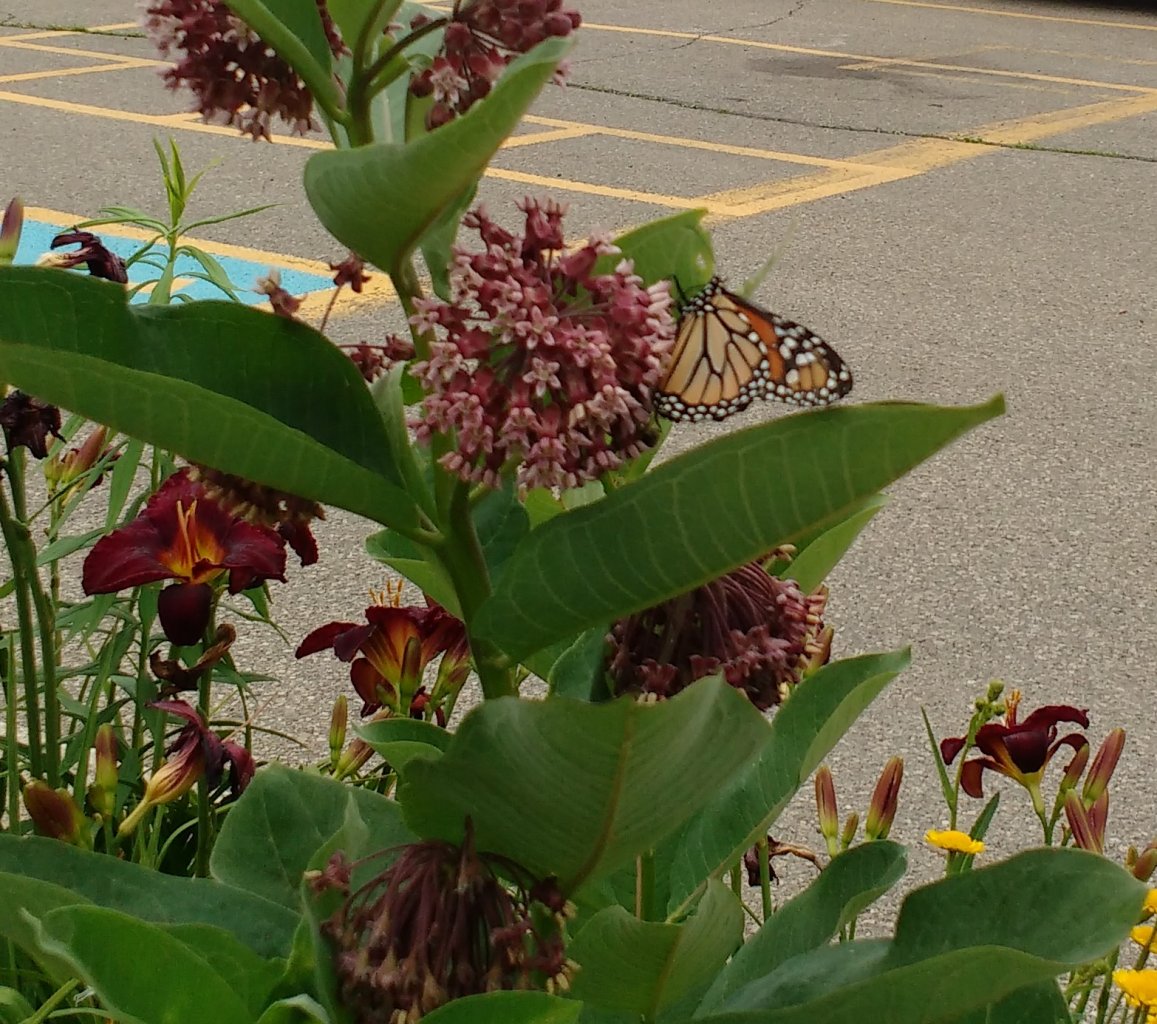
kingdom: Animalia
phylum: Arthropoda
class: Insecta
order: Lepidoptera
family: Nymphalidae
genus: Danaus
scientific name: Danaus plexippus
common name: Monarch
